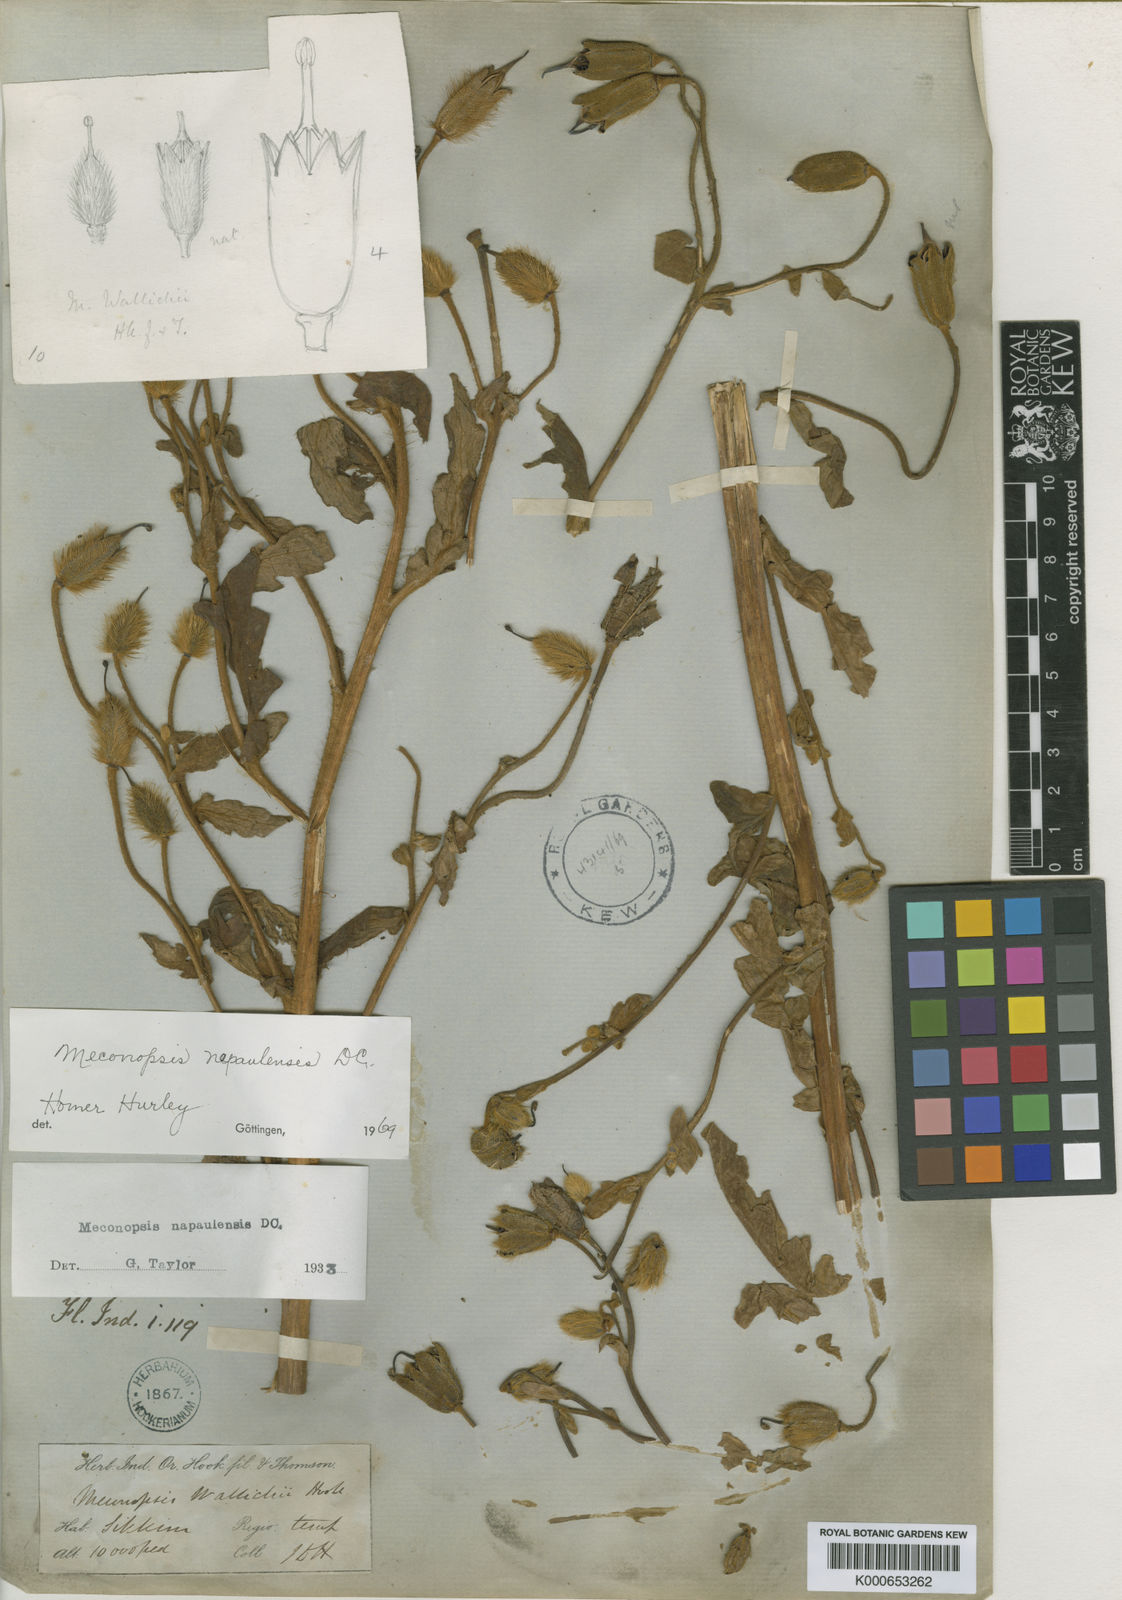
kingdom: Plantae
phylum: Tracheophyta
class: Magnoliopsida
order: Ranunculales
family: Papaveraceae
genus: Meconopsis
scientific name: Meconopsis napaulensis
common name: Satin-poppy
